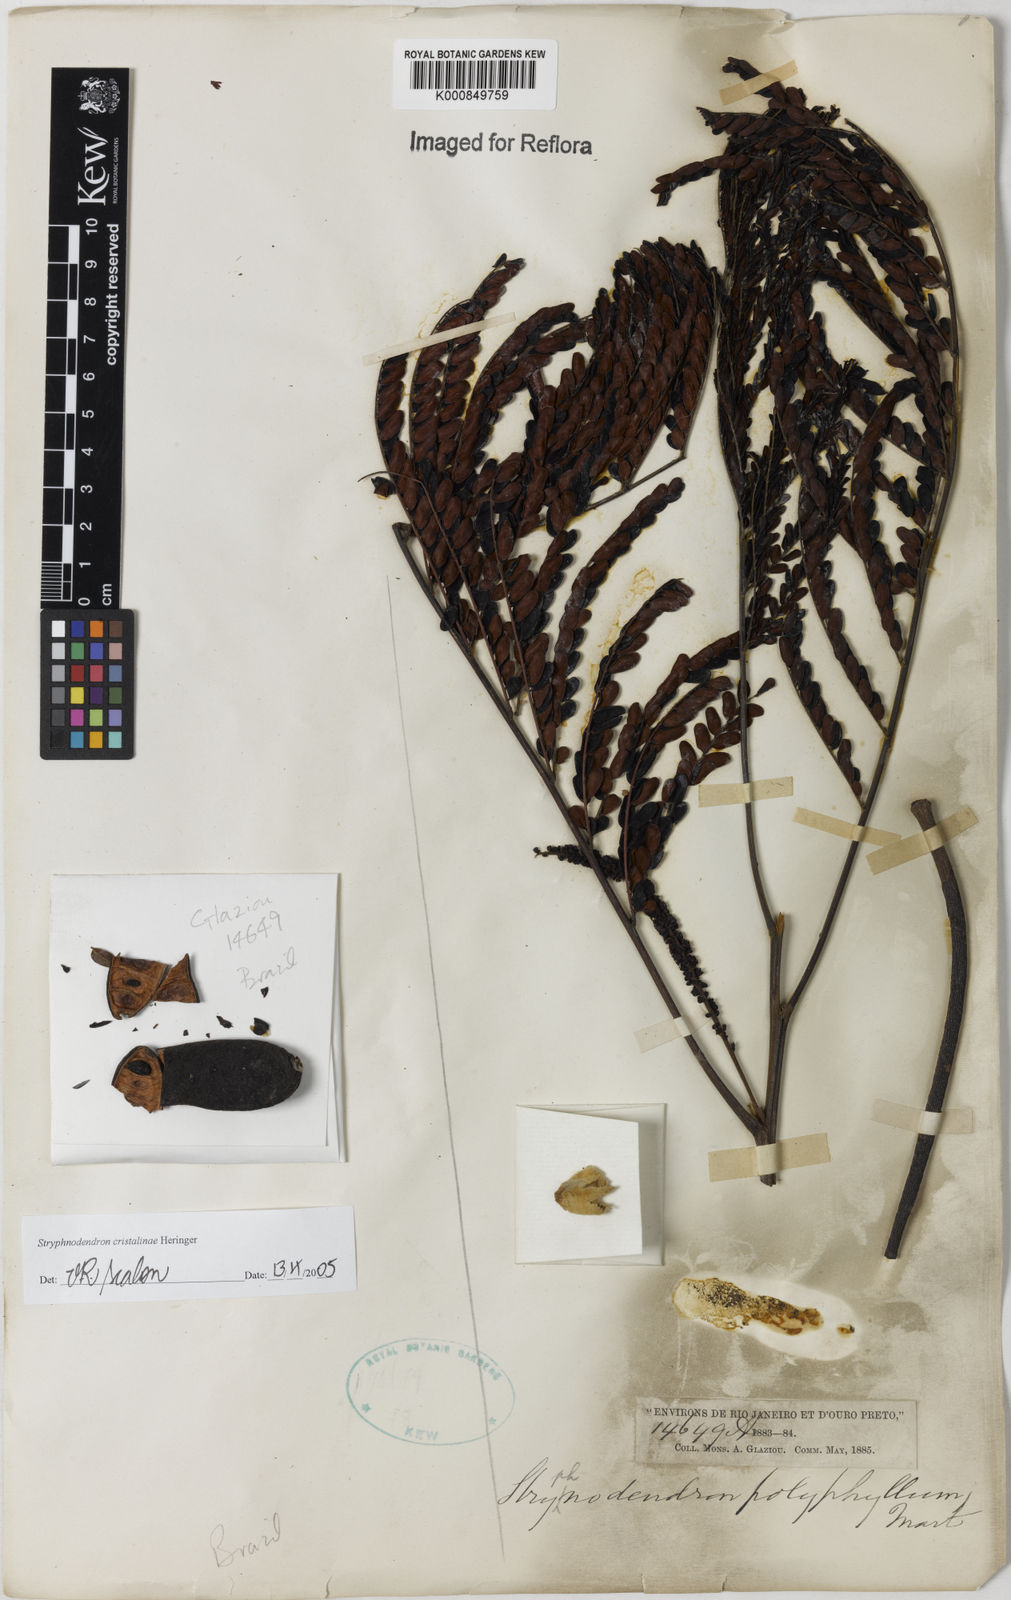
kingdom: Plantae
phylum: Tracheophyta
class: Magnoliopsida
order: Fabales
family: Fabaceae
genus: Stryphnodendron
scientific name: Stryphnodendron cristalinae
